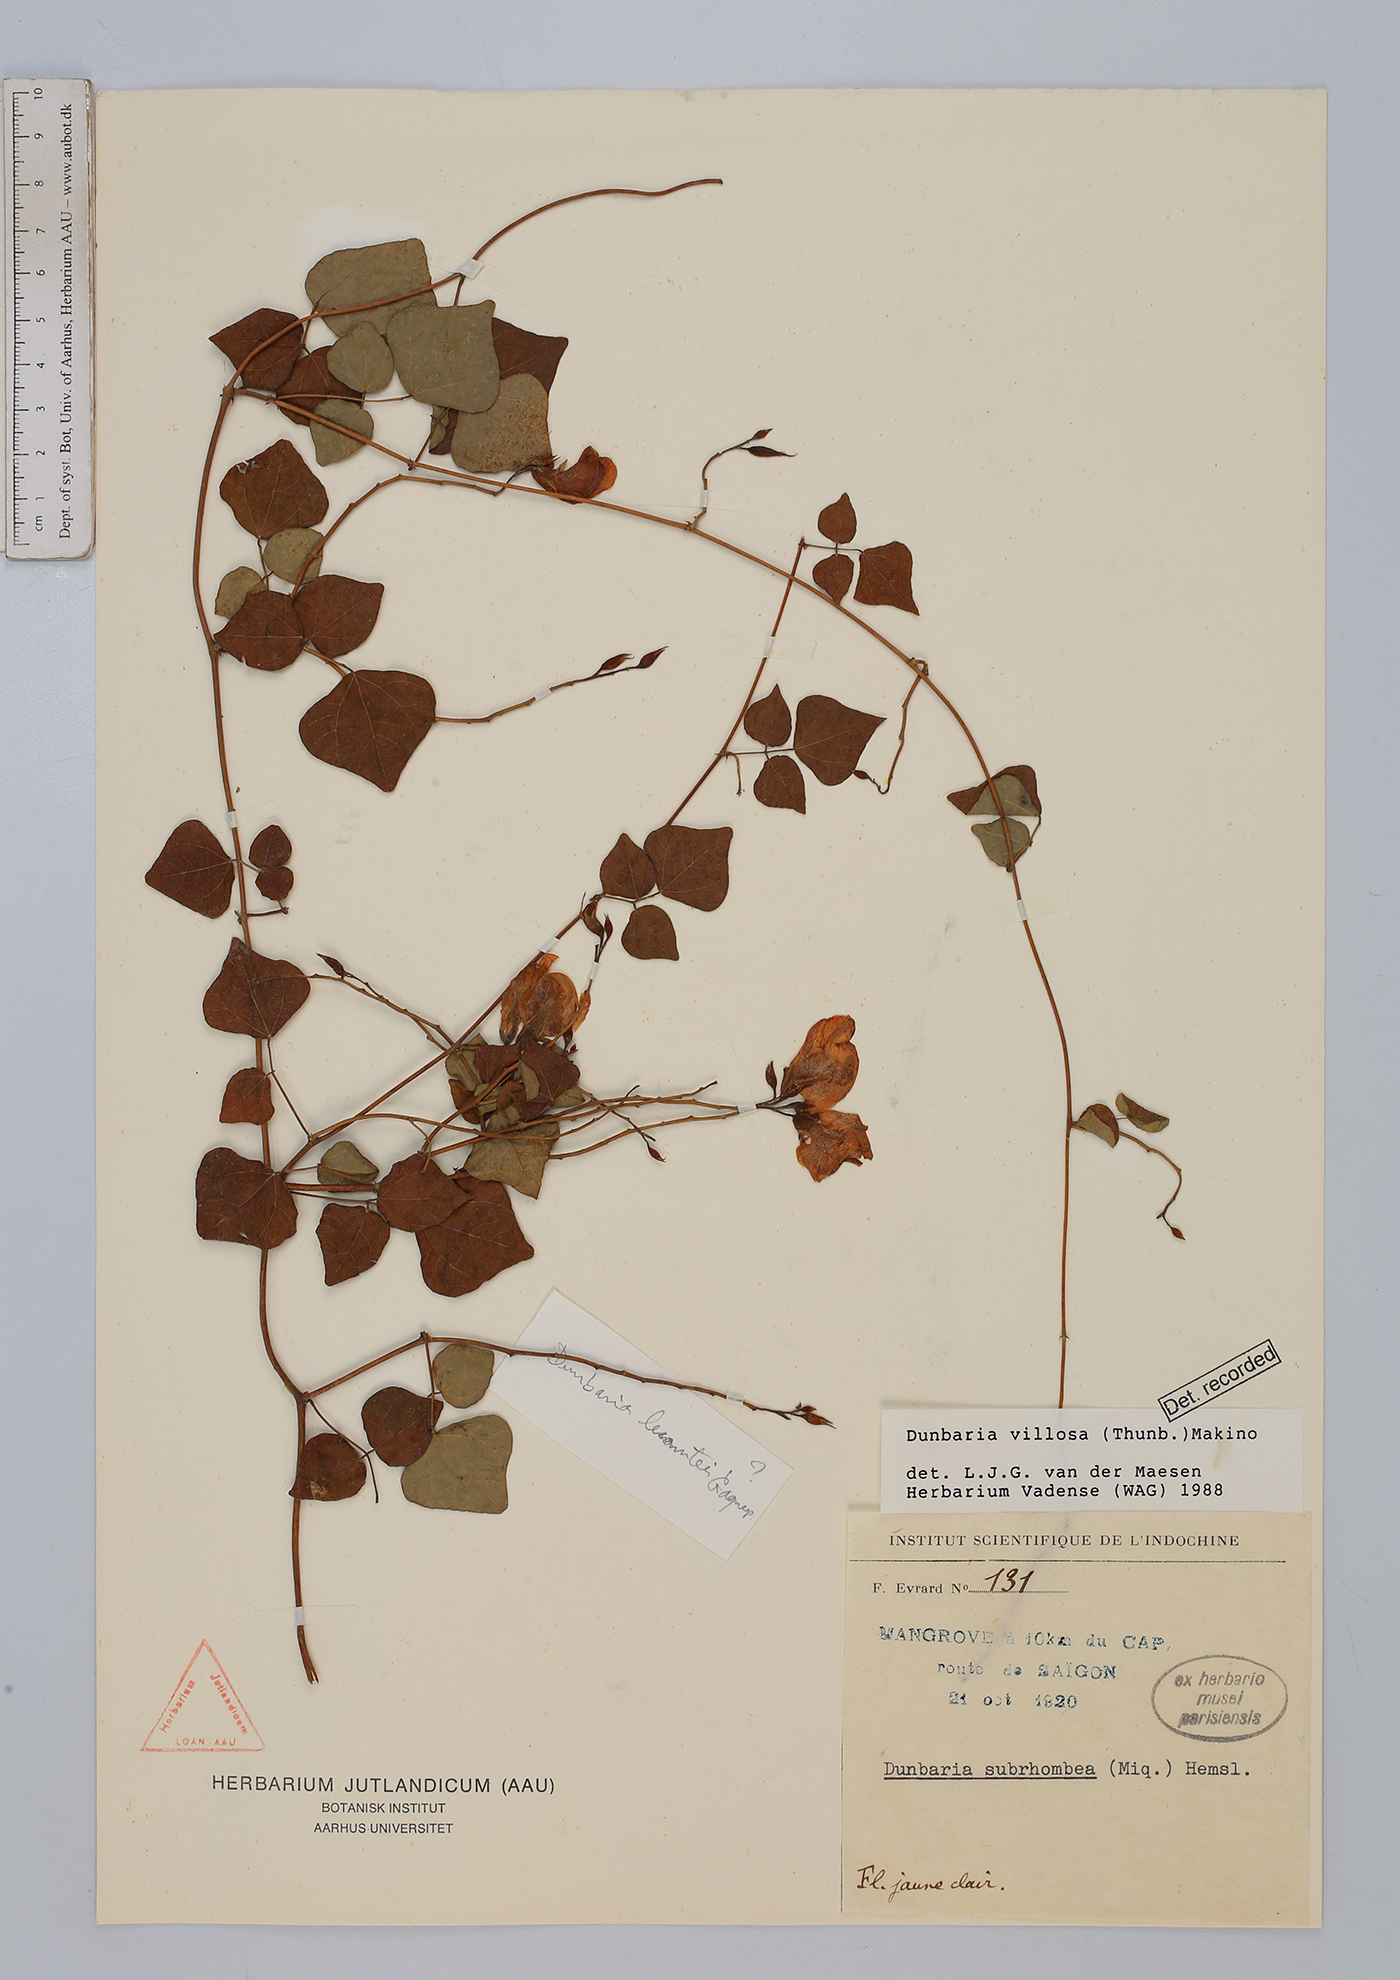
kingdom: Plantae
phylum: Tracheophyta
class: Magnoliopsida
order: Fabales
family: Fabaceae
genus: Dunbaria
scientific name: Dunbaria villosa
